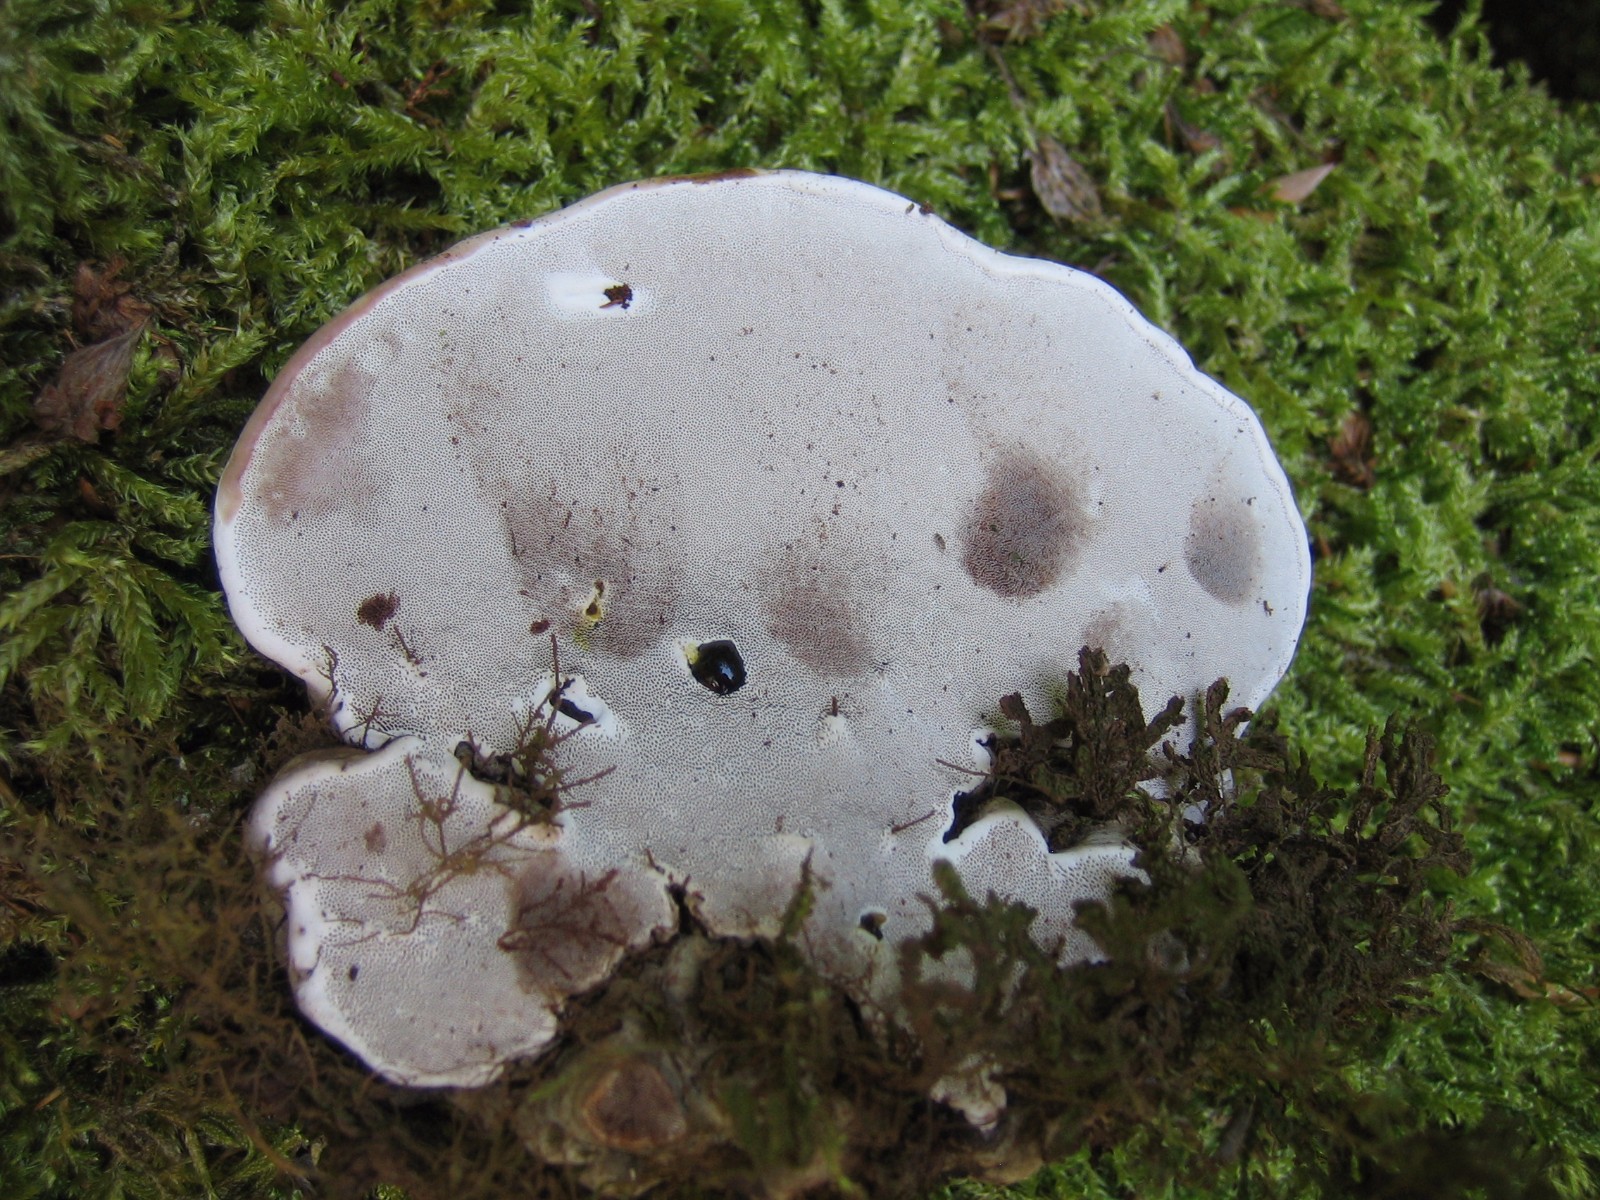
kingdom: Fungi
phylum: Basidiomycota
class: Agaricomycetes
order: Polyporales
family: Polyporaceae
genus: Ganoderma
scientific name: Ganoderma applanatum
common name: flad lakporesvamp
